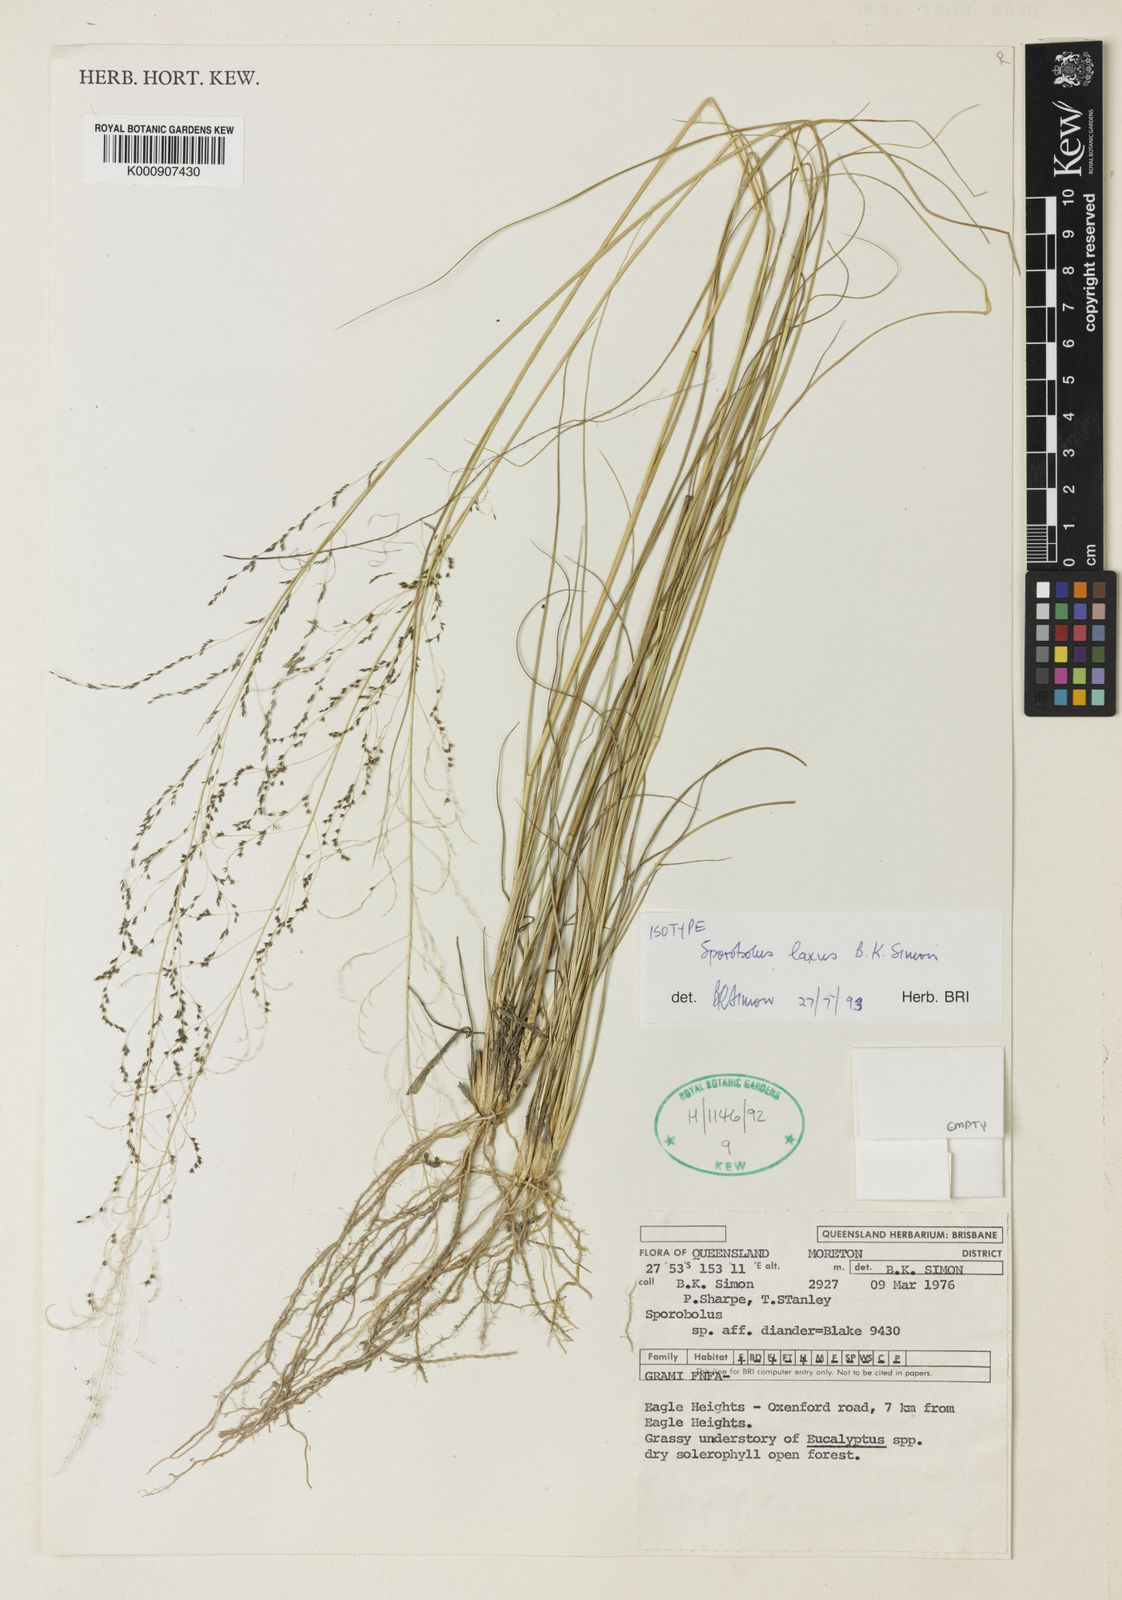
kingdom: Plantae
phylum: Tracheophyta
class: Liliopsida
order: Poales
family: Poaceae
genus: Sporobolus
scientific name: Sporobolus laxus
